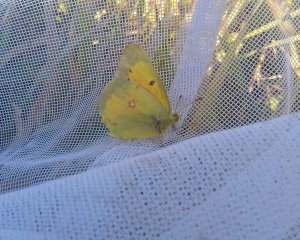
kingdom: Animalia
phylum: Arthropoda
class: Insecta
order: Lepidoptera
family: Pieridae
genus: Colias
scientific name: Colias eurytheme
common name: Orange Sulphur
